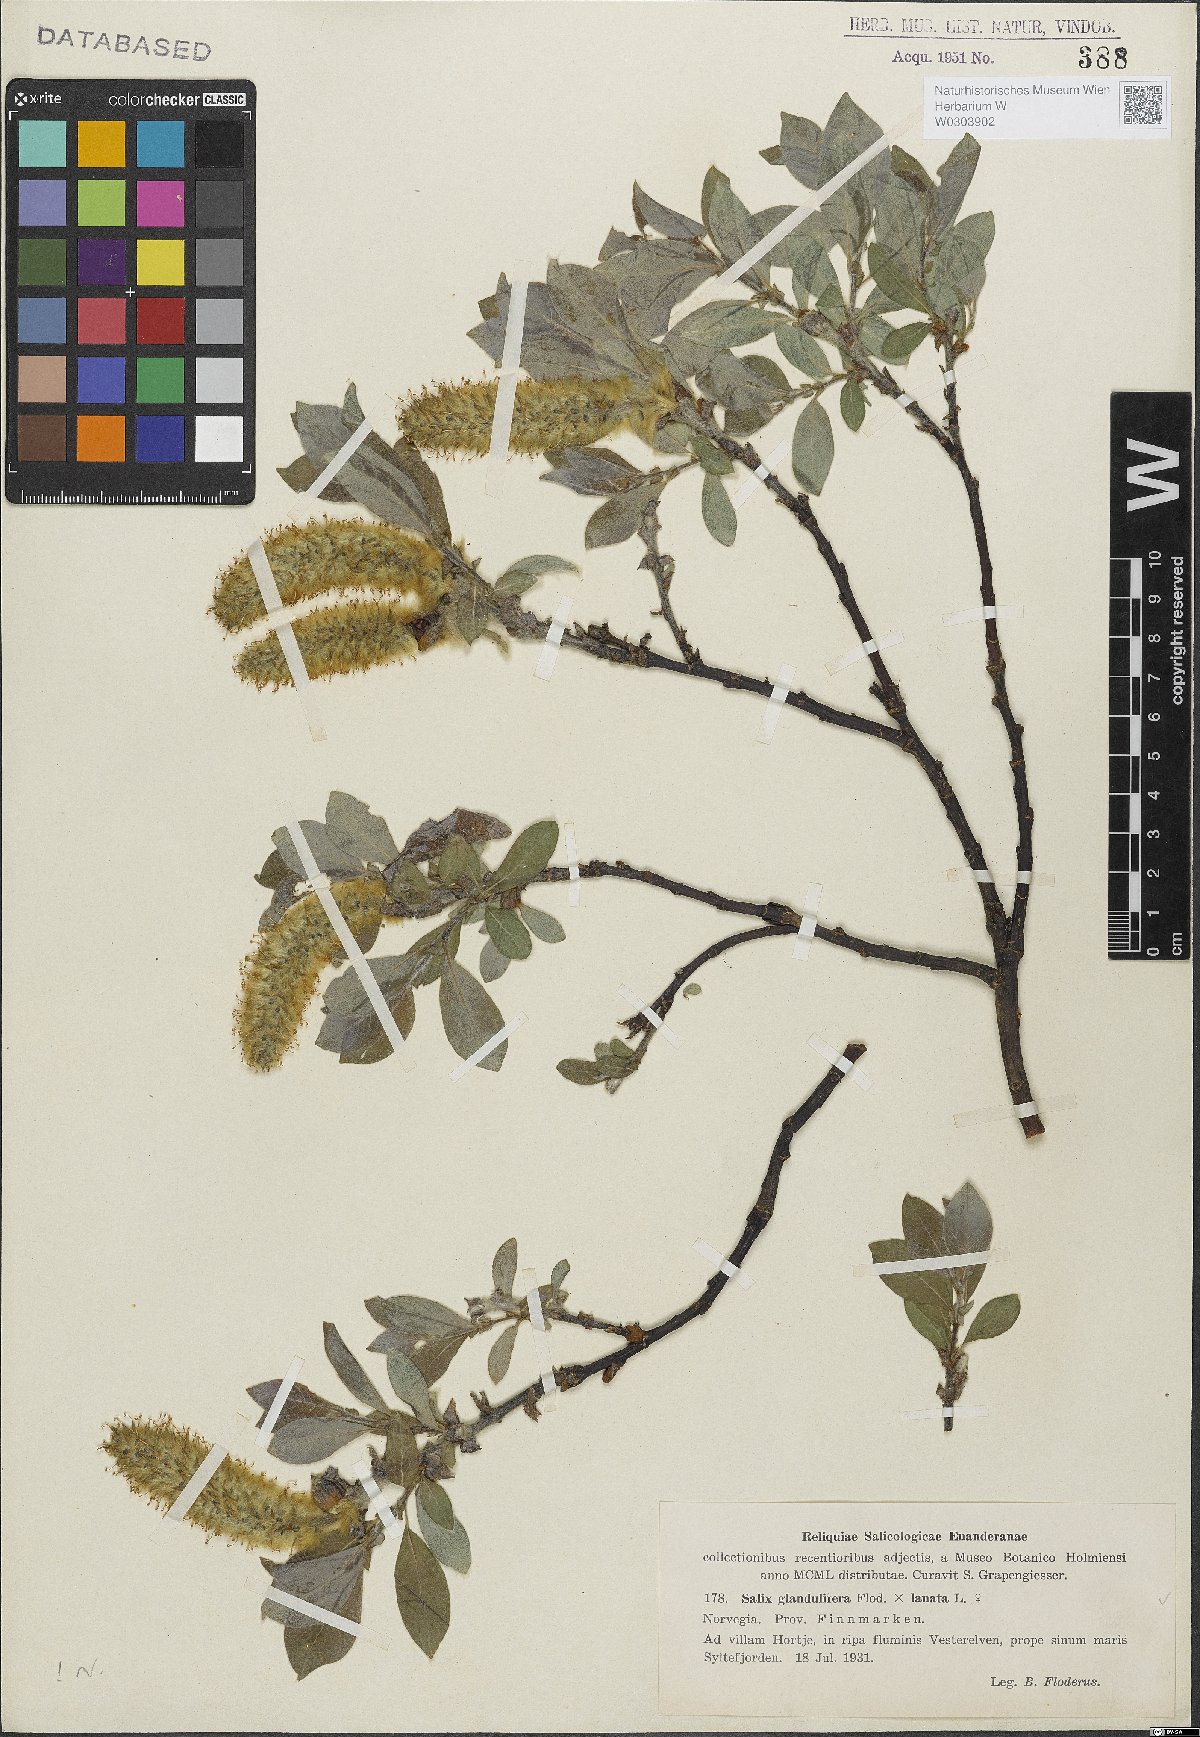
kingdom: Plantae
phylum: Tracheophyta
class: Magnoliopsida
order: Malpighiales
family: Salicaceae
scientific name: Salicaceae
